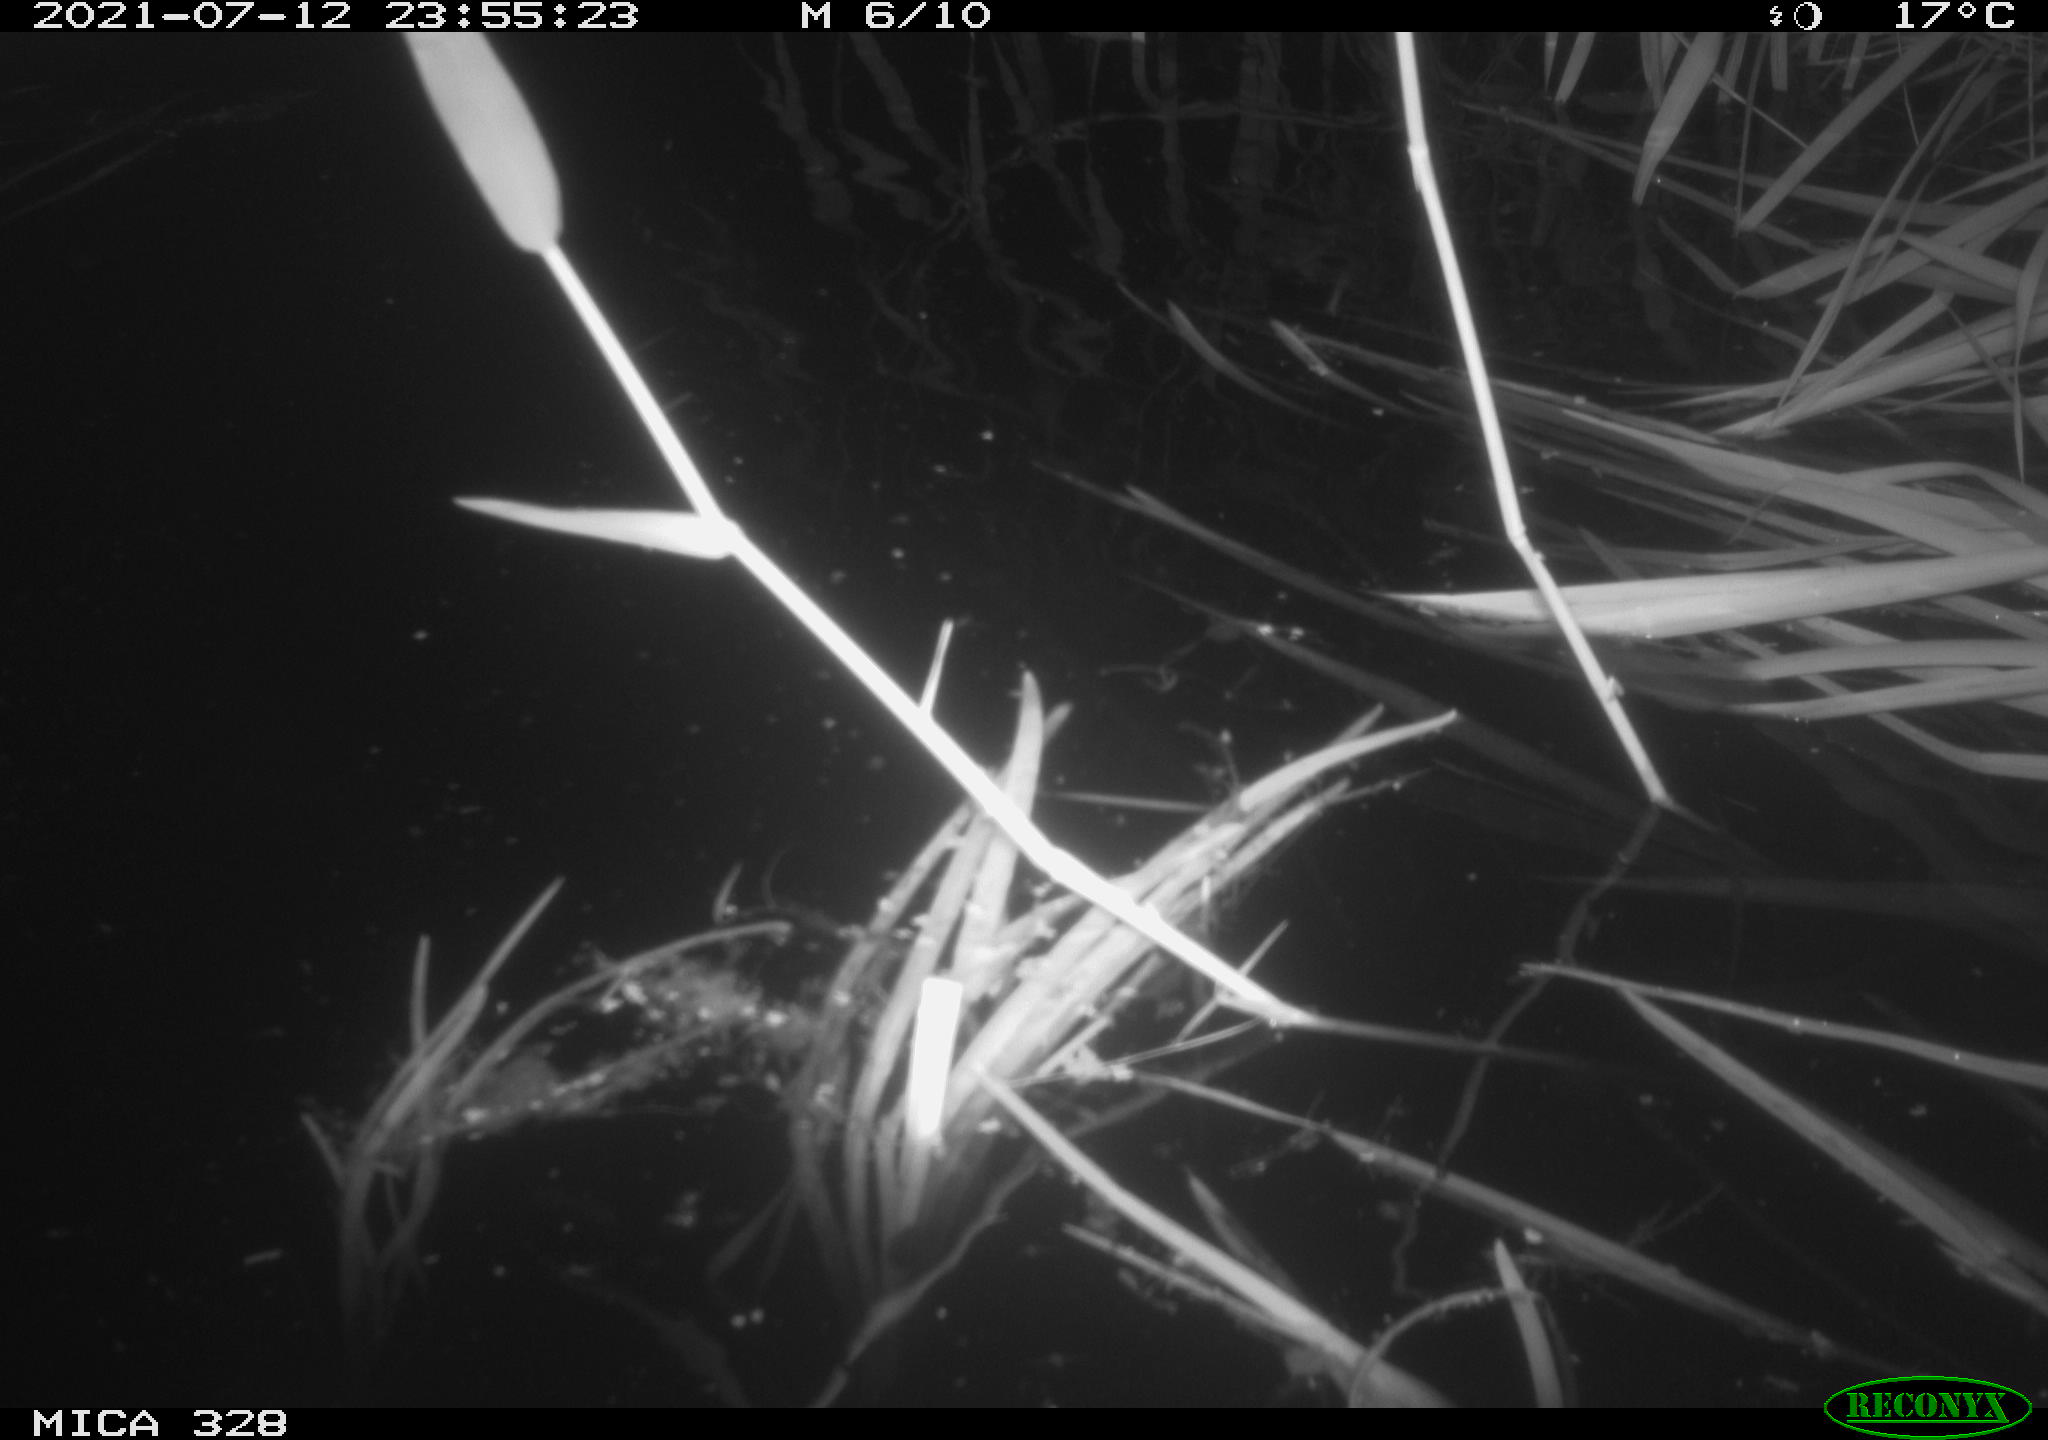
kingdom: Animalia
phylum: Chordata
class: Mammalia
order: Rodentia
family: Cricetidae
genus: Ondatra
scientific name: Ondatra zibethicus
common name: Muskrat
